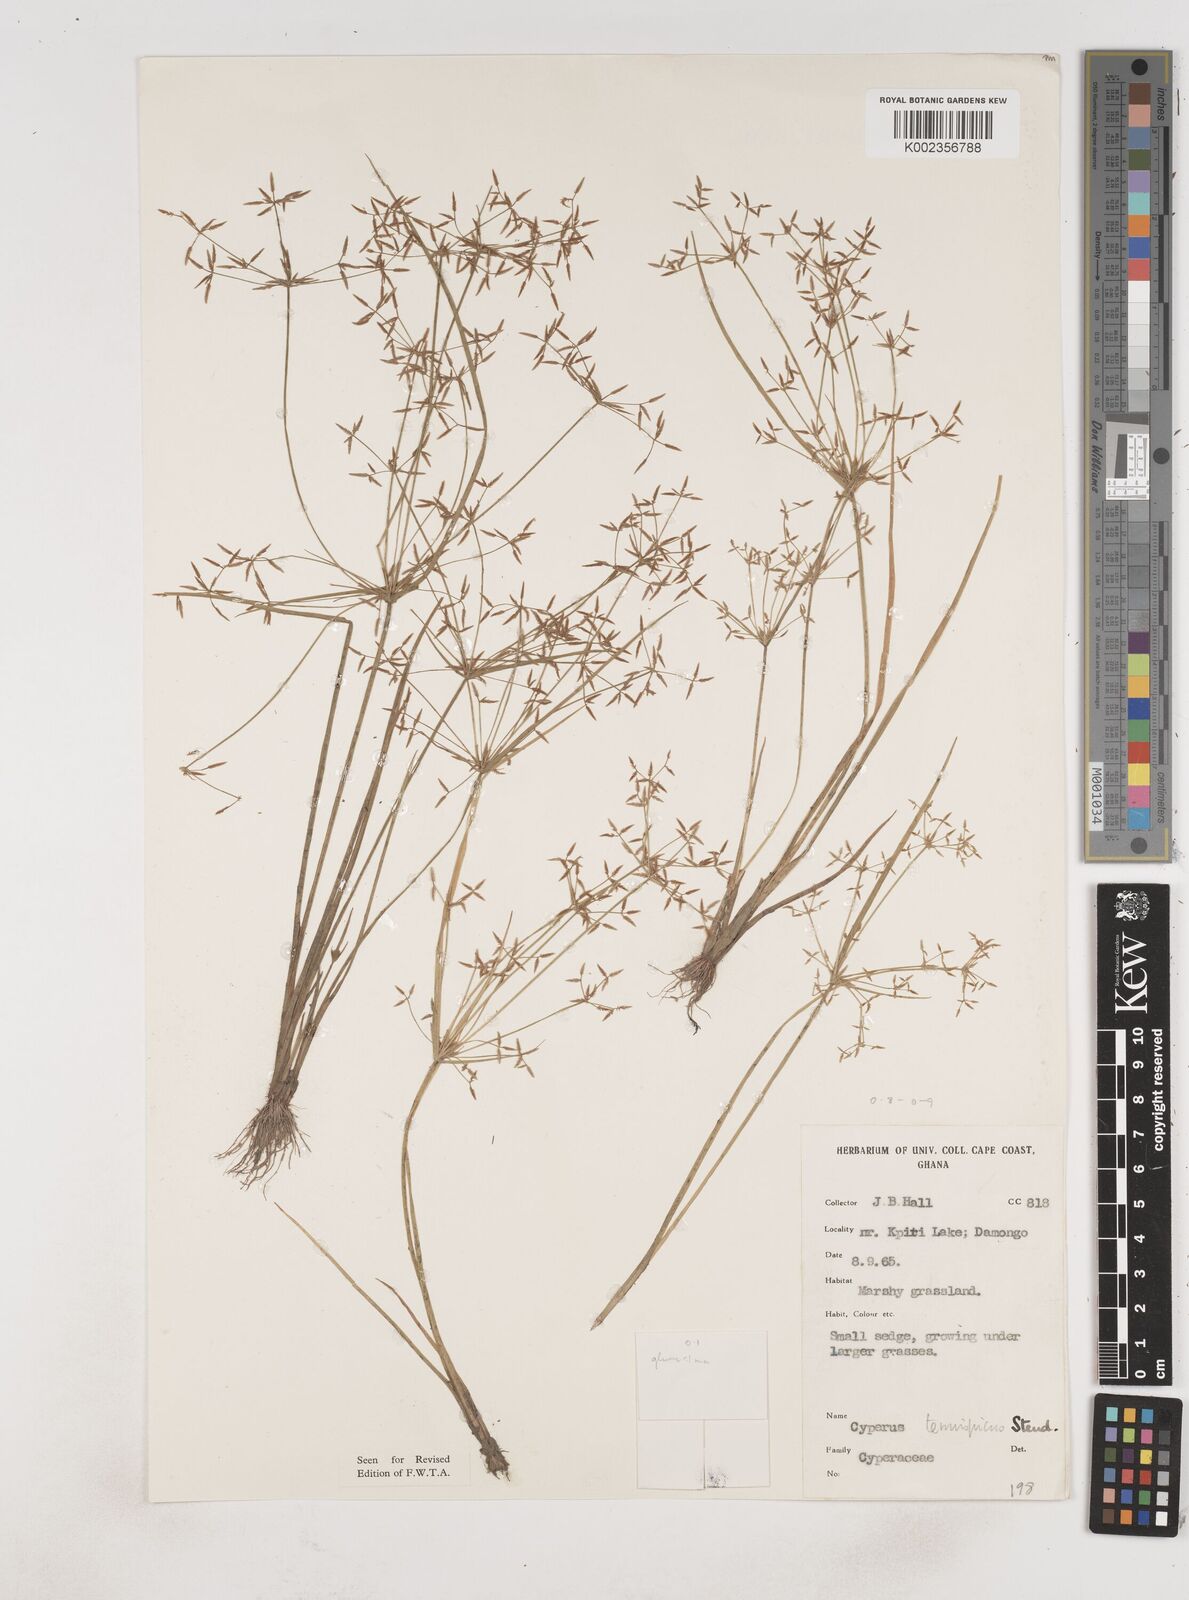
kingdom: Plantae
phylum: Tracheophyta
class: Liliopsida
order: Poales
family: Cyperaceae
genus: Cyperus
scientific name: Cyperus tenuispica
